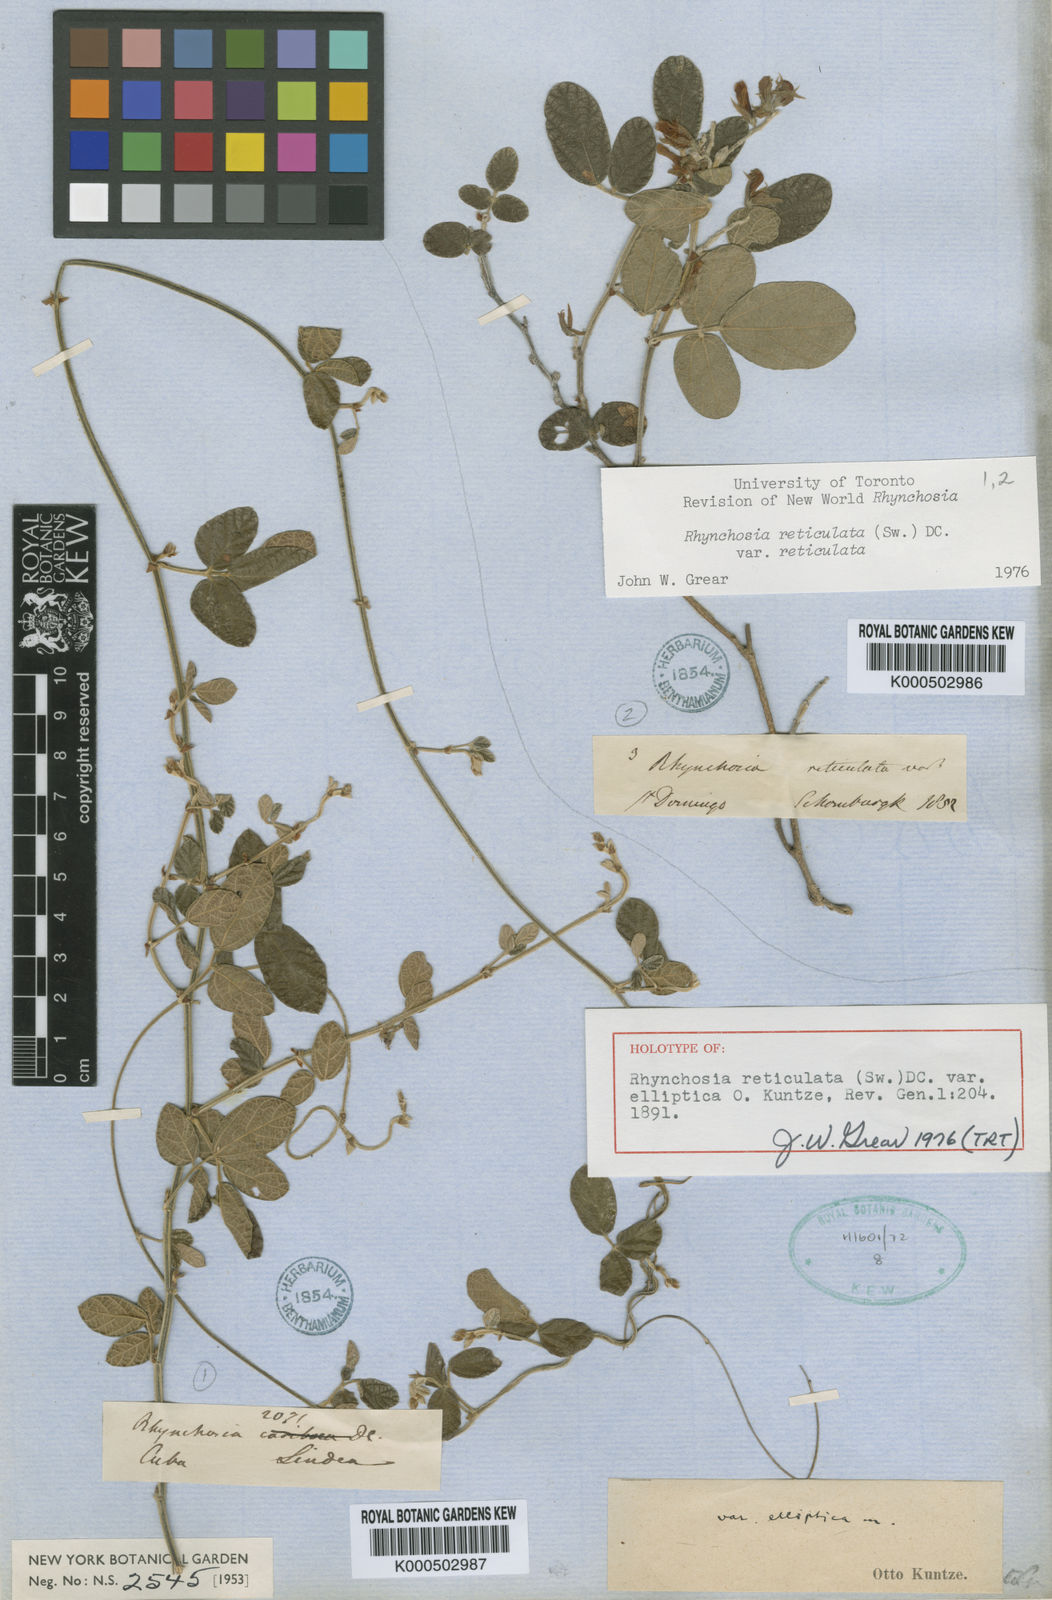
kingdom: Plantae
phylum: Tracheophyta
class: Magnoliopsida
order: Fabales
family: Fabaceae
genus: Rhynchosia
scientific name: Rhynchosia reticulata
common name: Pea withe
